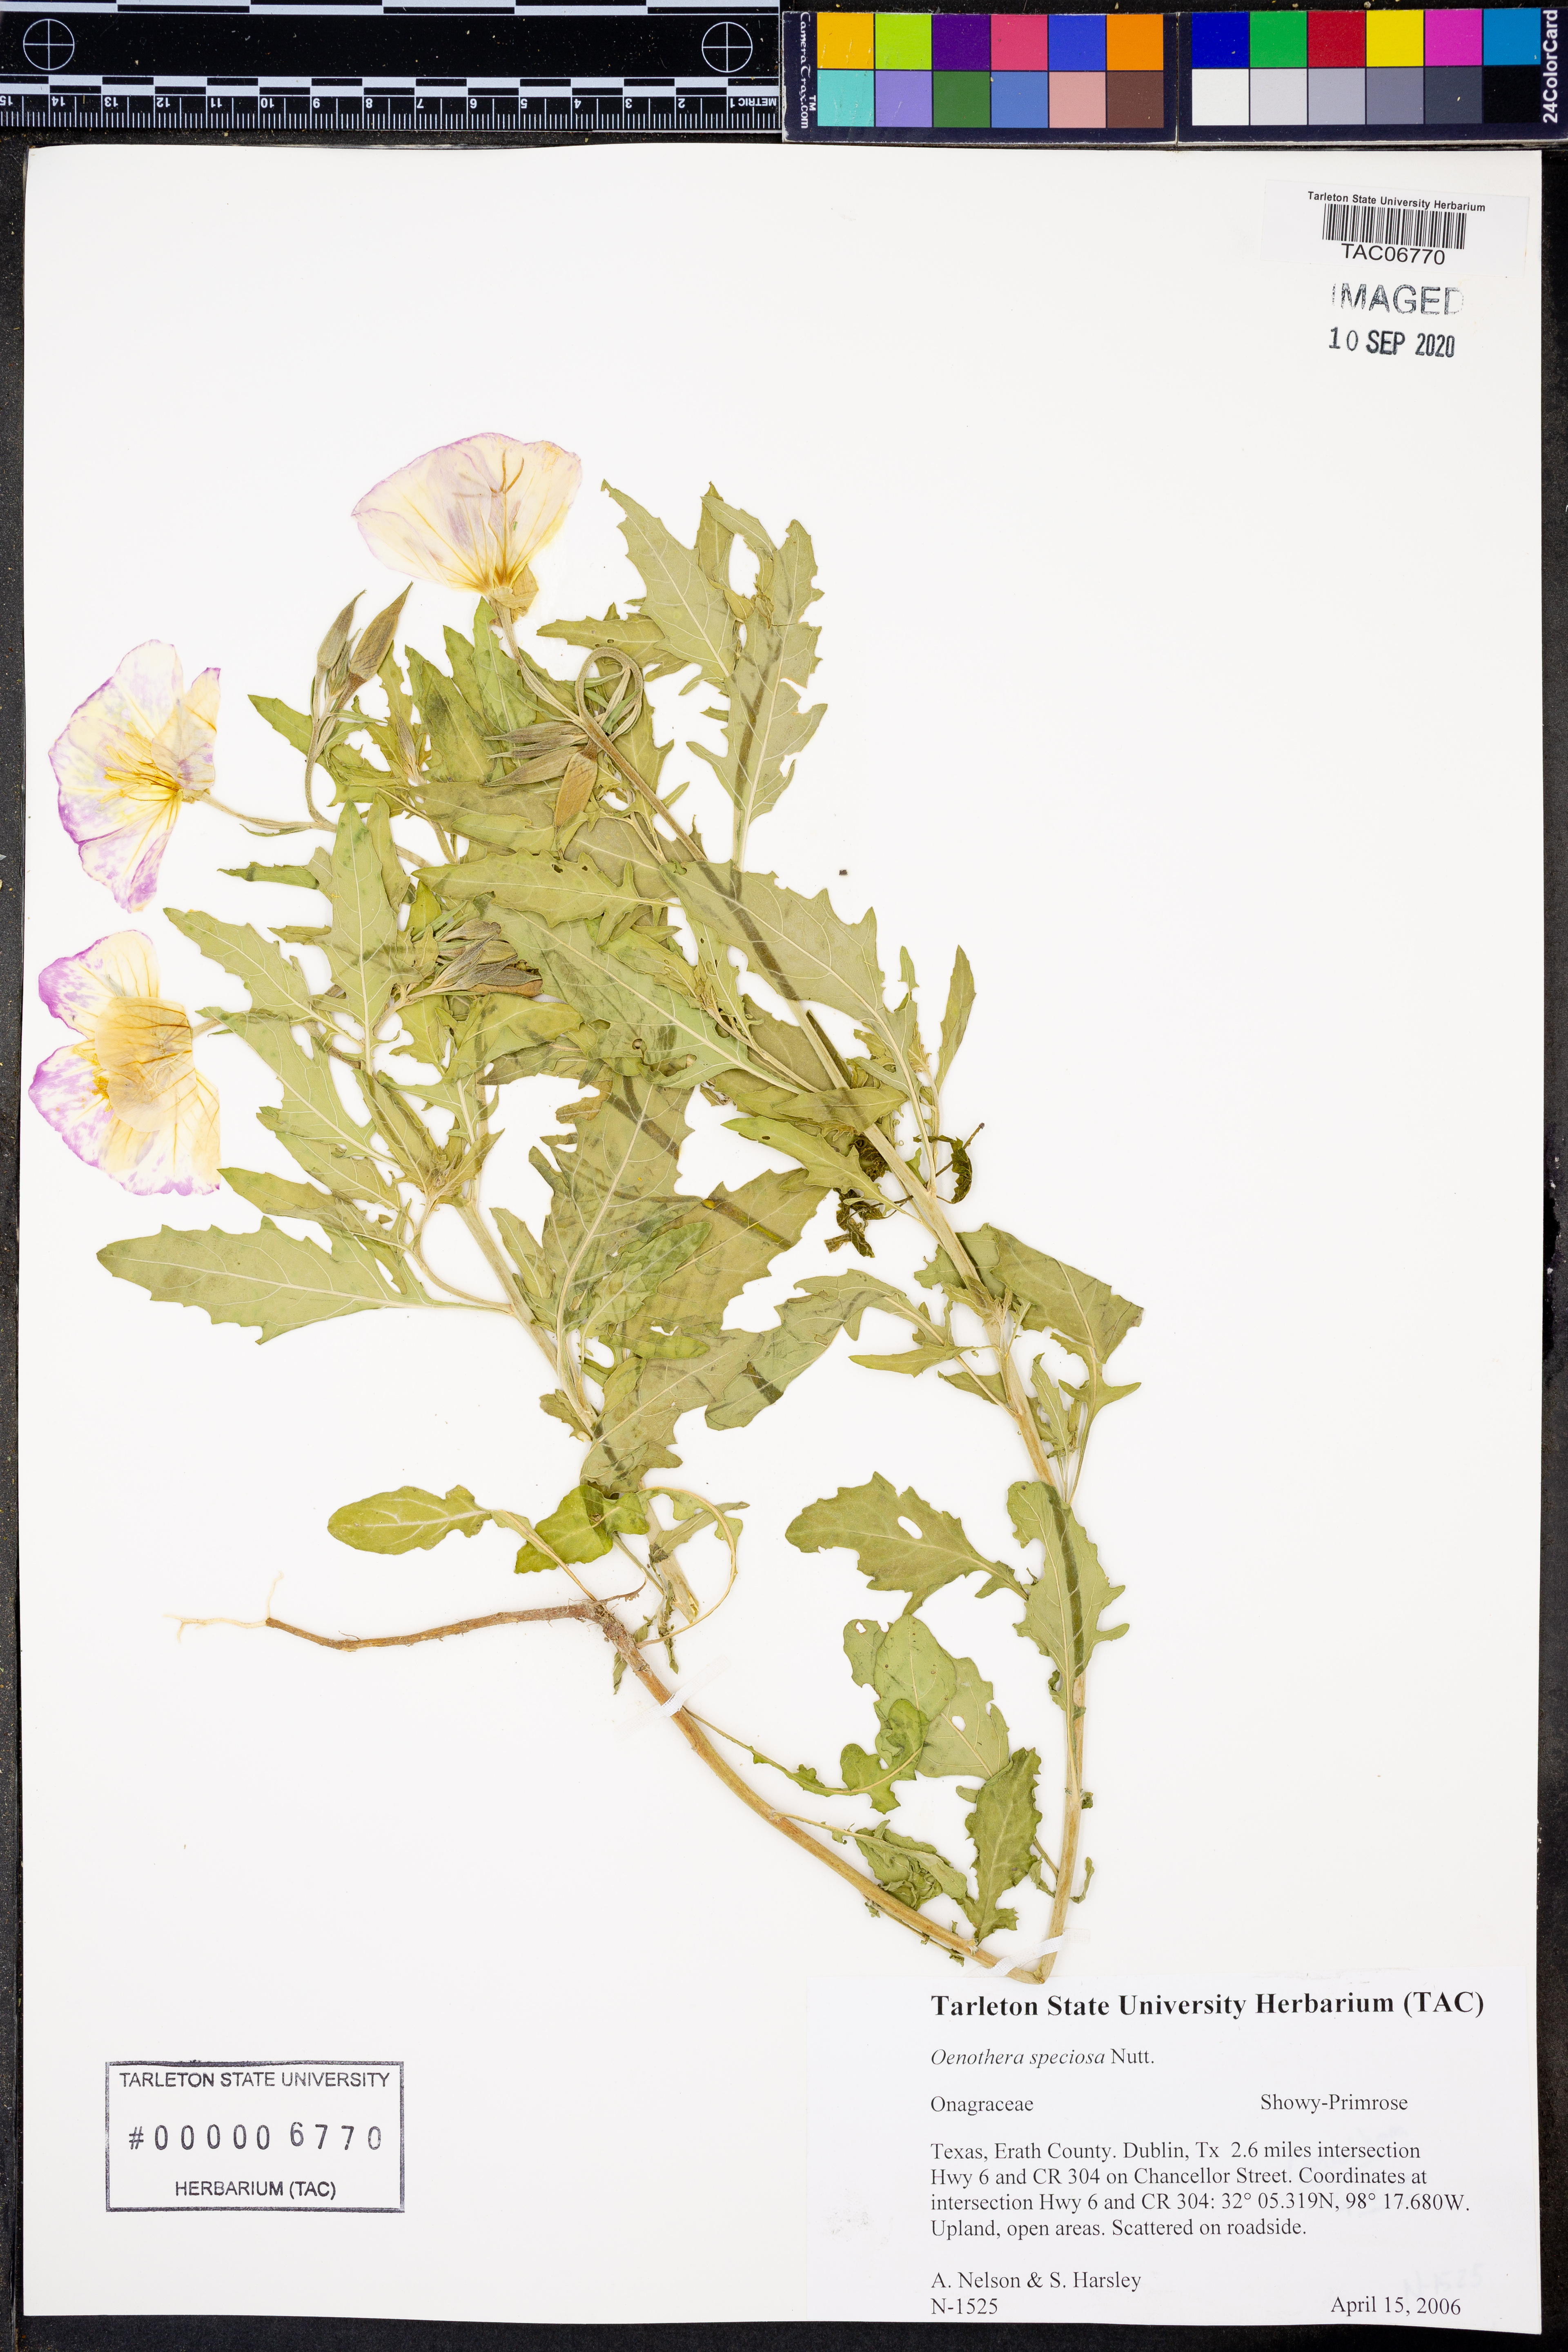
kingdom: Plantae
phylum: Tracheophyta
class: Magnoliopsida
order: Myrtales
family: Onagraceae
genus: Oenothera
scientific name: Oenothera speciosa
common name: White evening-primrose
